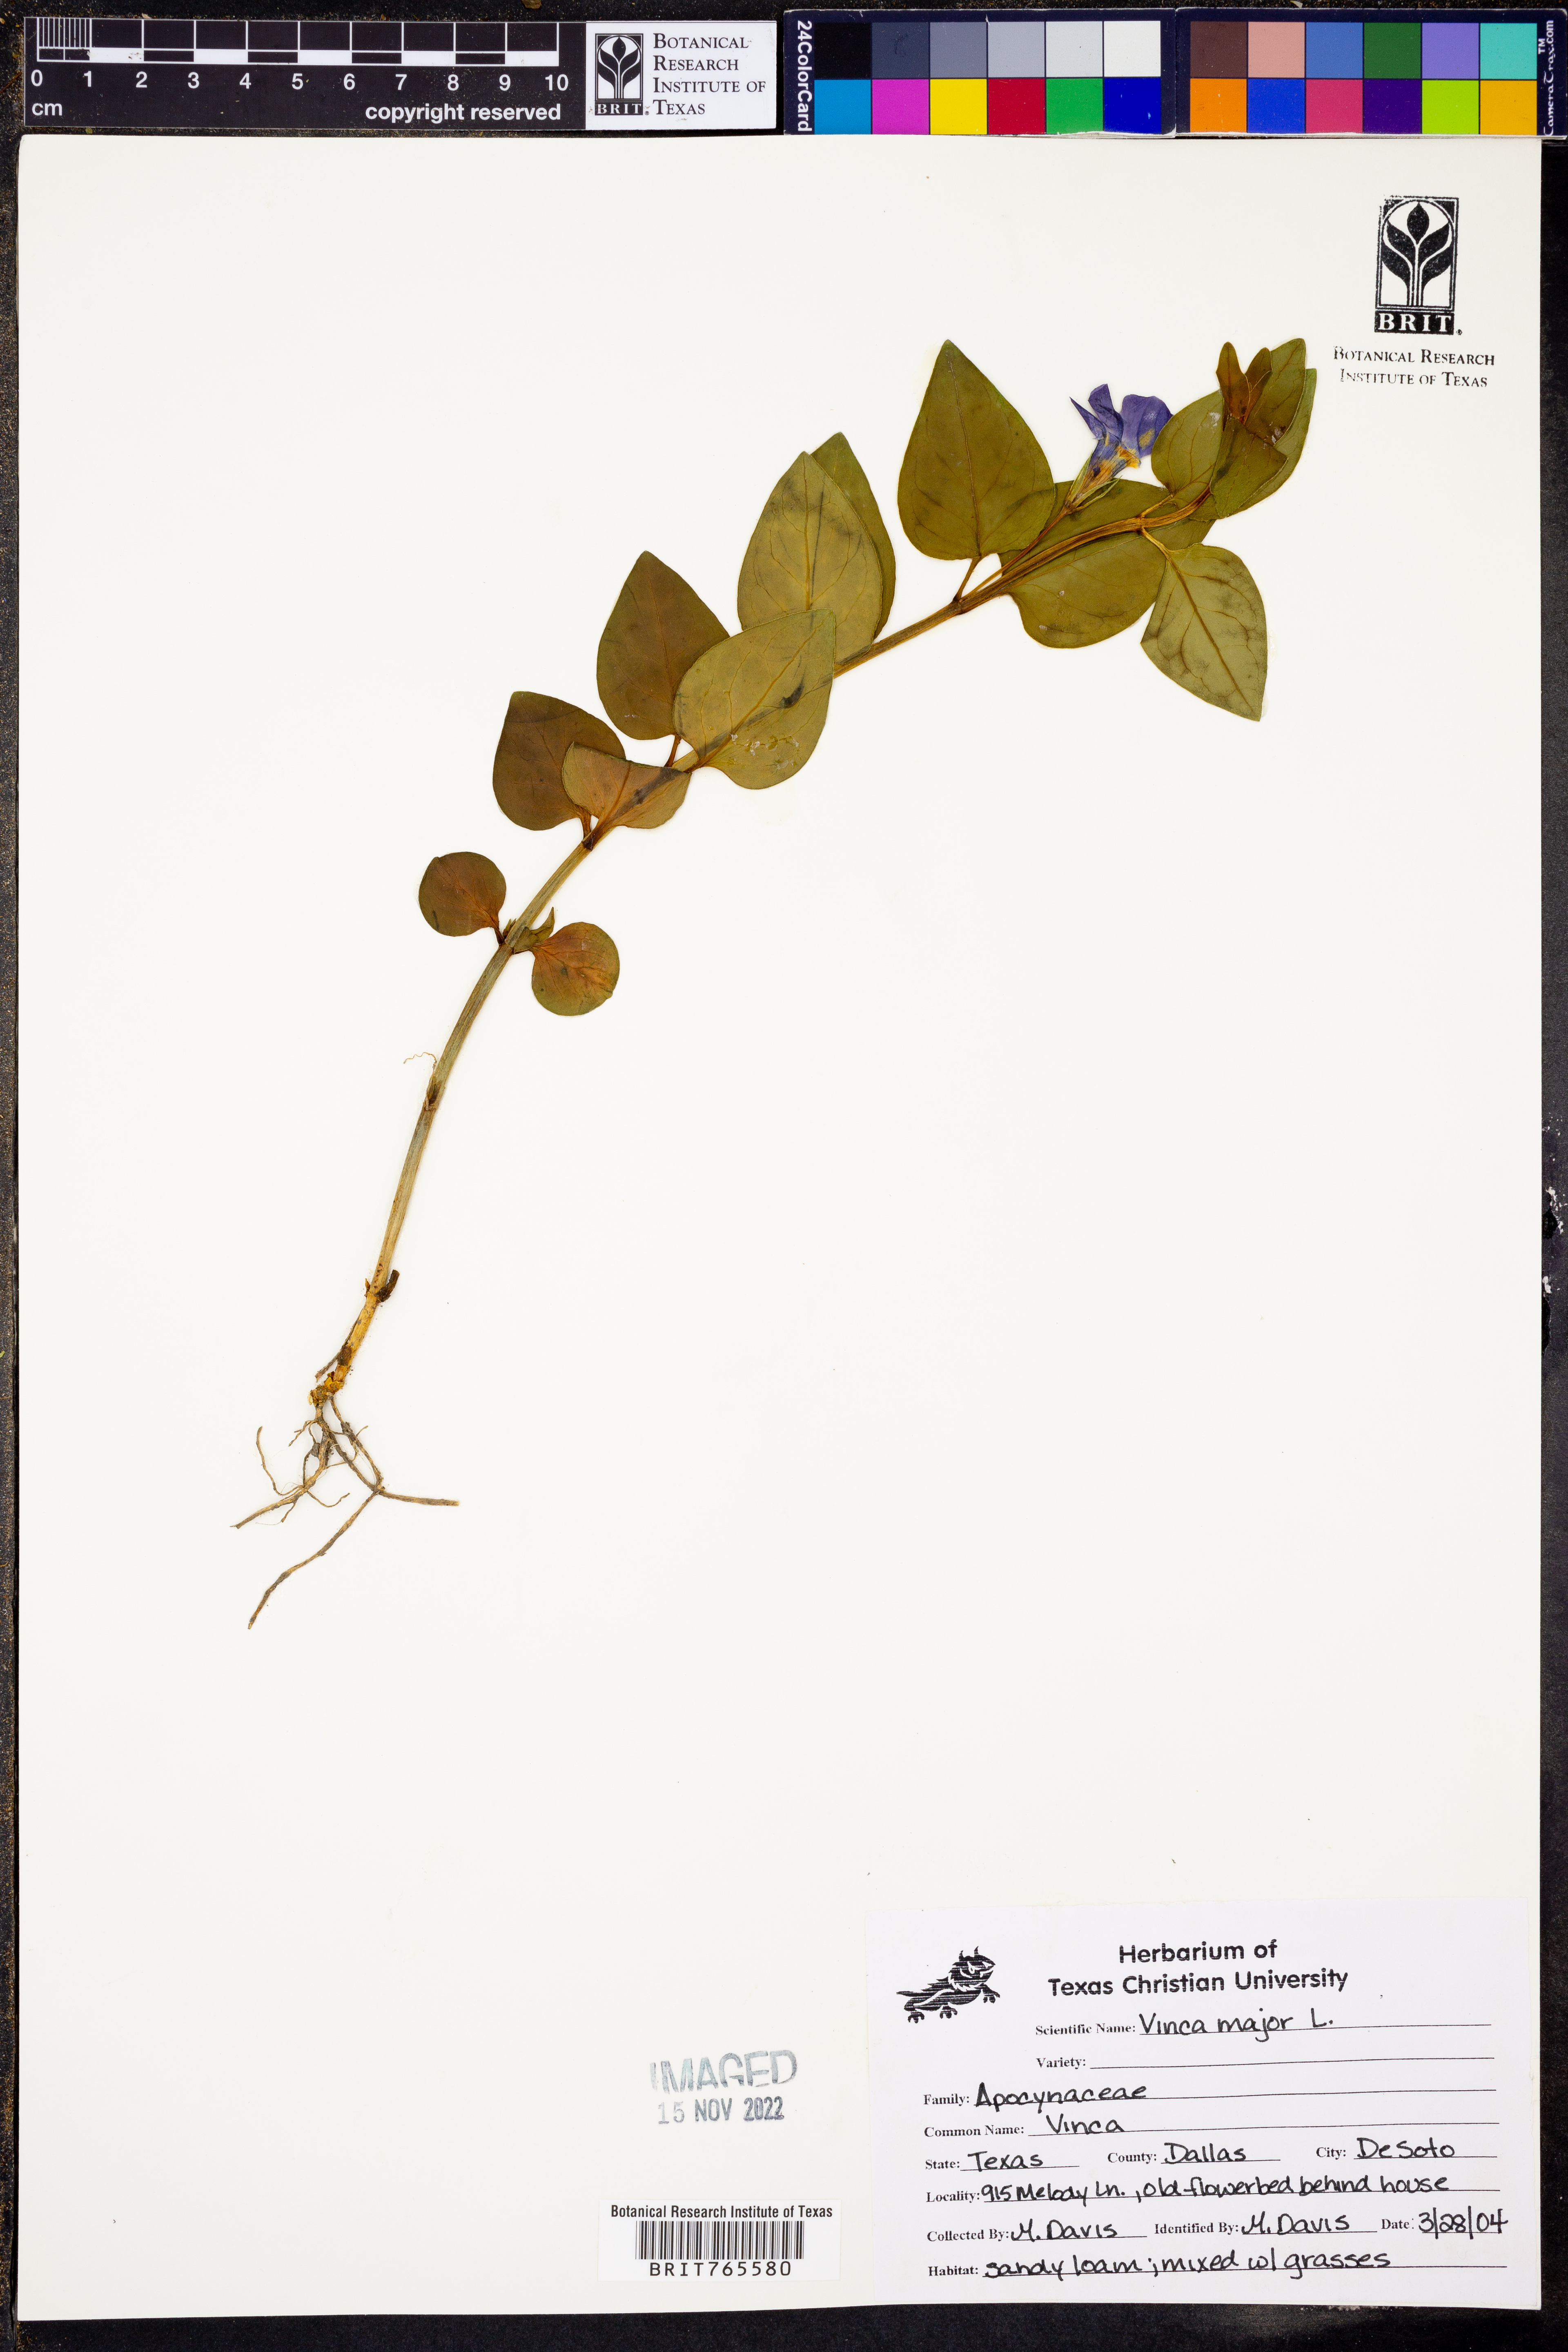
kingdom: Plantae
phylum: Tracheophyta
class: Magnoliopsida
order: Gentianales
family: Apocynaceae
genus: Vinca
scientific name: Vinca major
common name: Greater periwinkle
